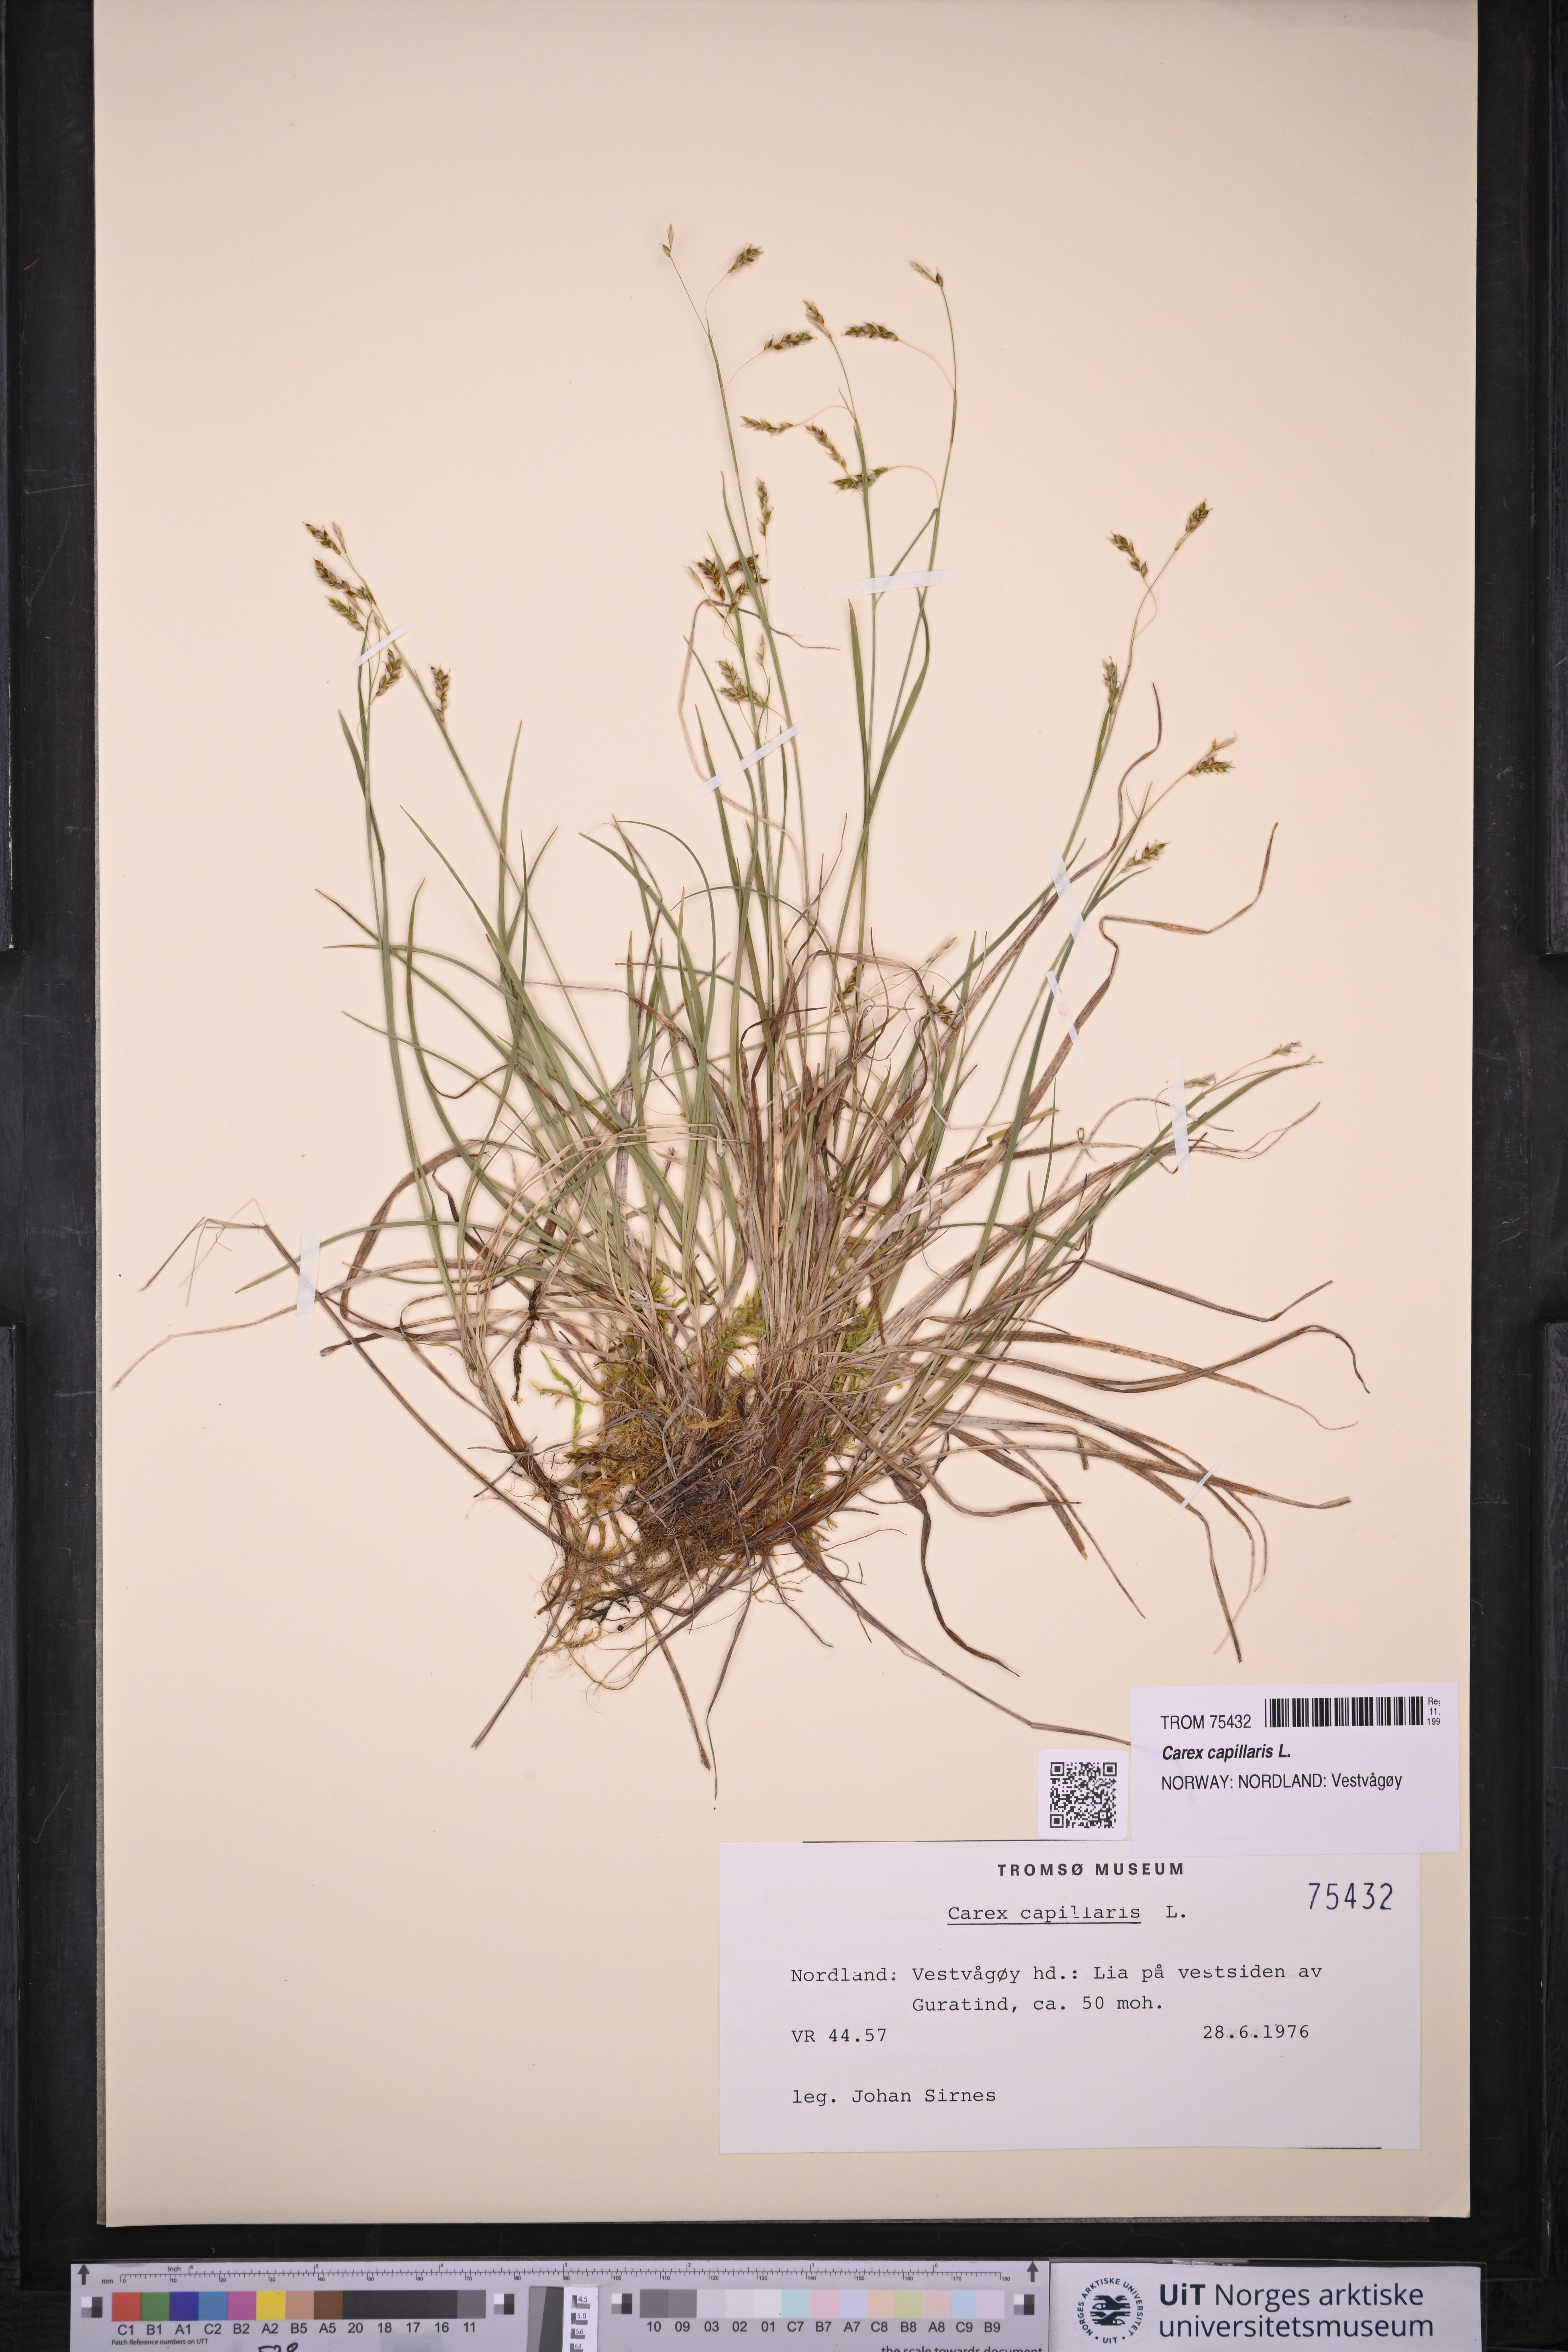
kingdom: Plantae
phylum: Tracheophyta
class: Liliopsida
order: Poales
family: Cyperaceae
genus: Carex
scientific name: Carex capillaris
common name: Hair sedge
